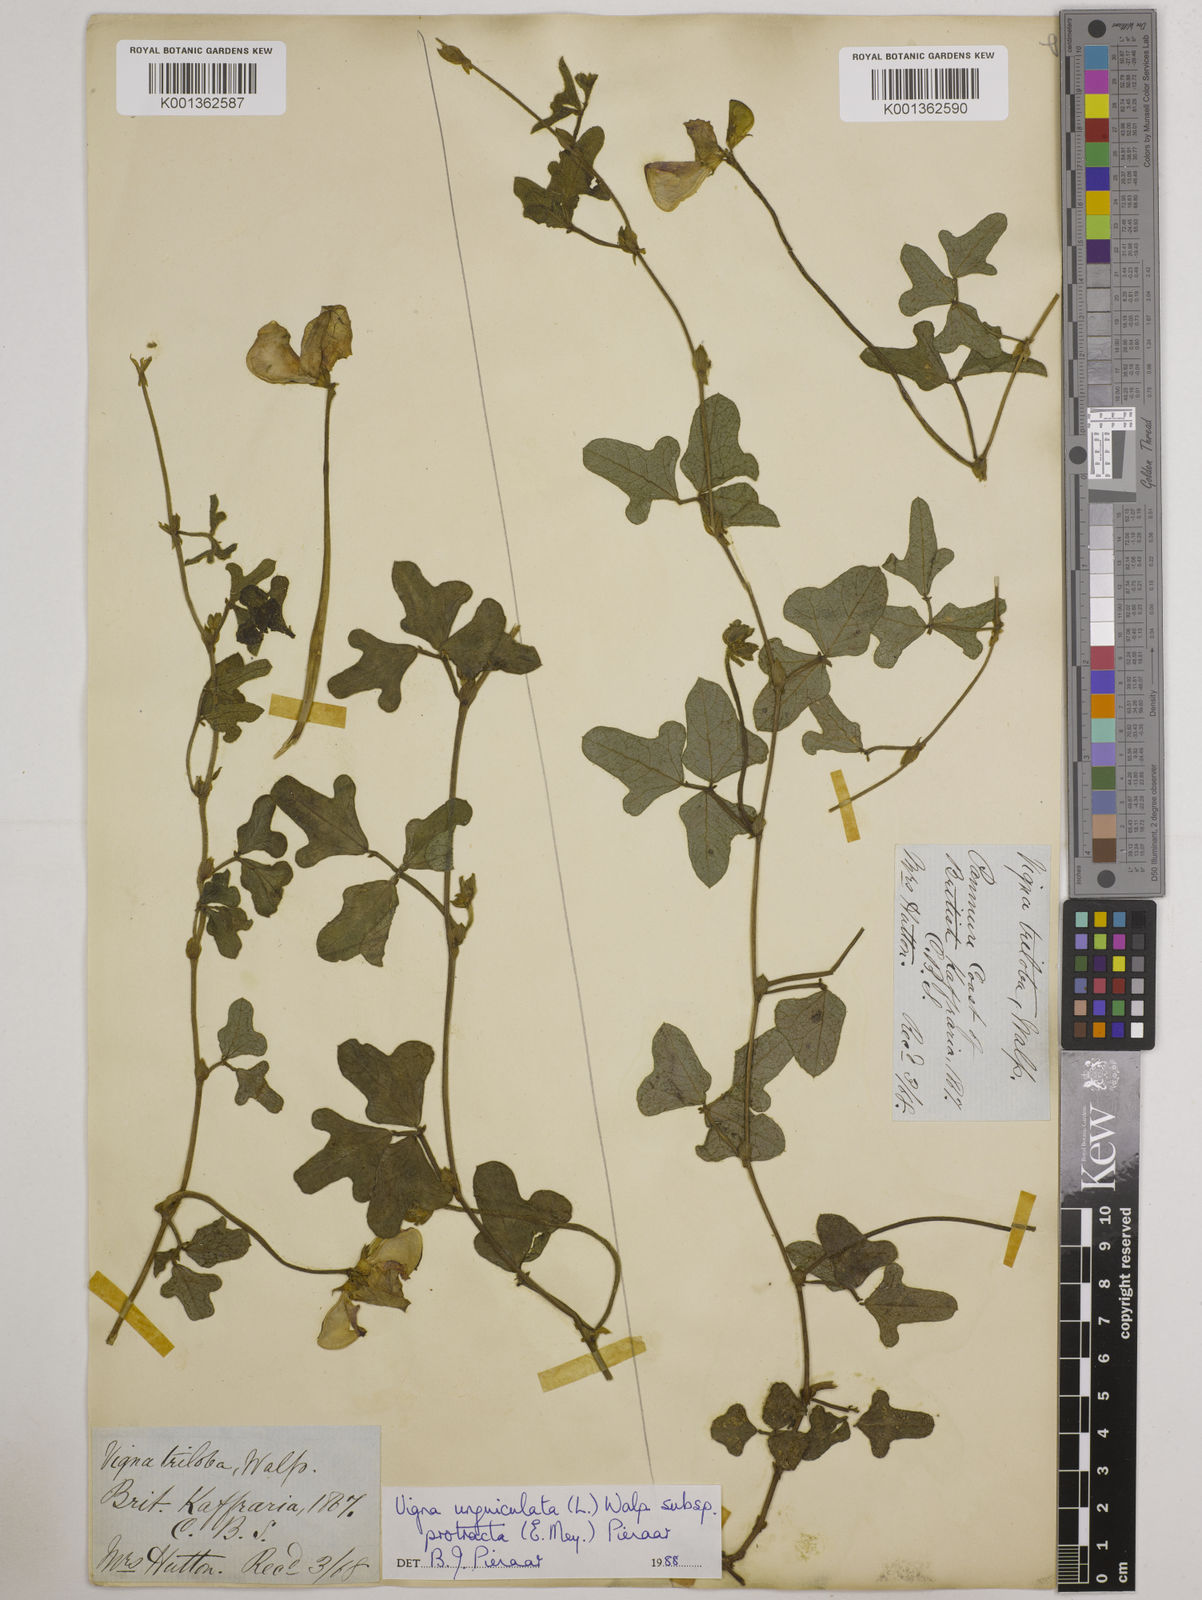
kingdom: Plantae
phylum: Tracheophyta
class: Magnoliopsida
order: Fabales
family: Fabaceae
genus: Vigna
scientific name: Vigna unguiculata
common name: Cowpea
